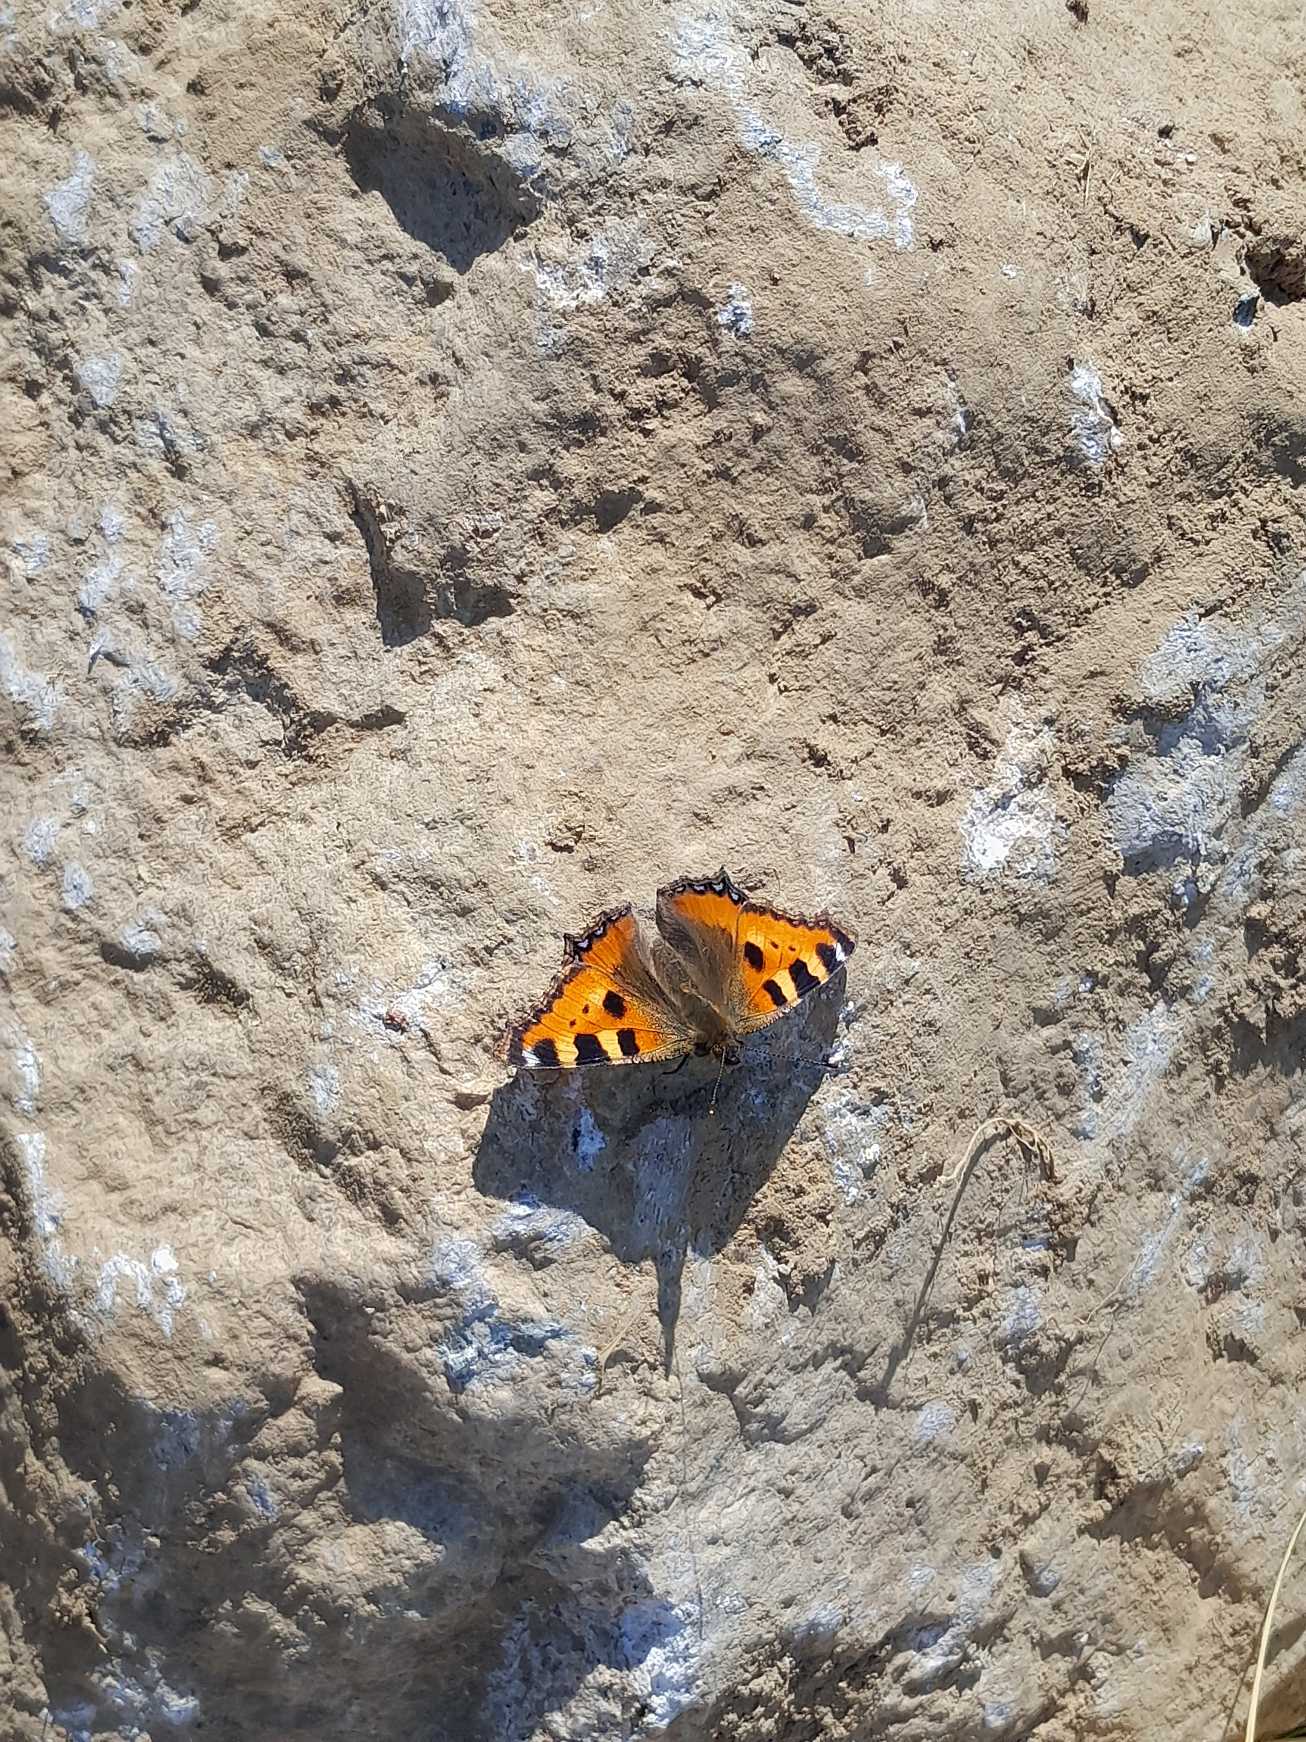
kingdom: Animalia
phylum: Arthropoda
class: Insecta
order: Lepidoptera
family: Nymphalidae
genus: Aglais
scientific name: Aglais urticae
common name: Nældens takvinge
